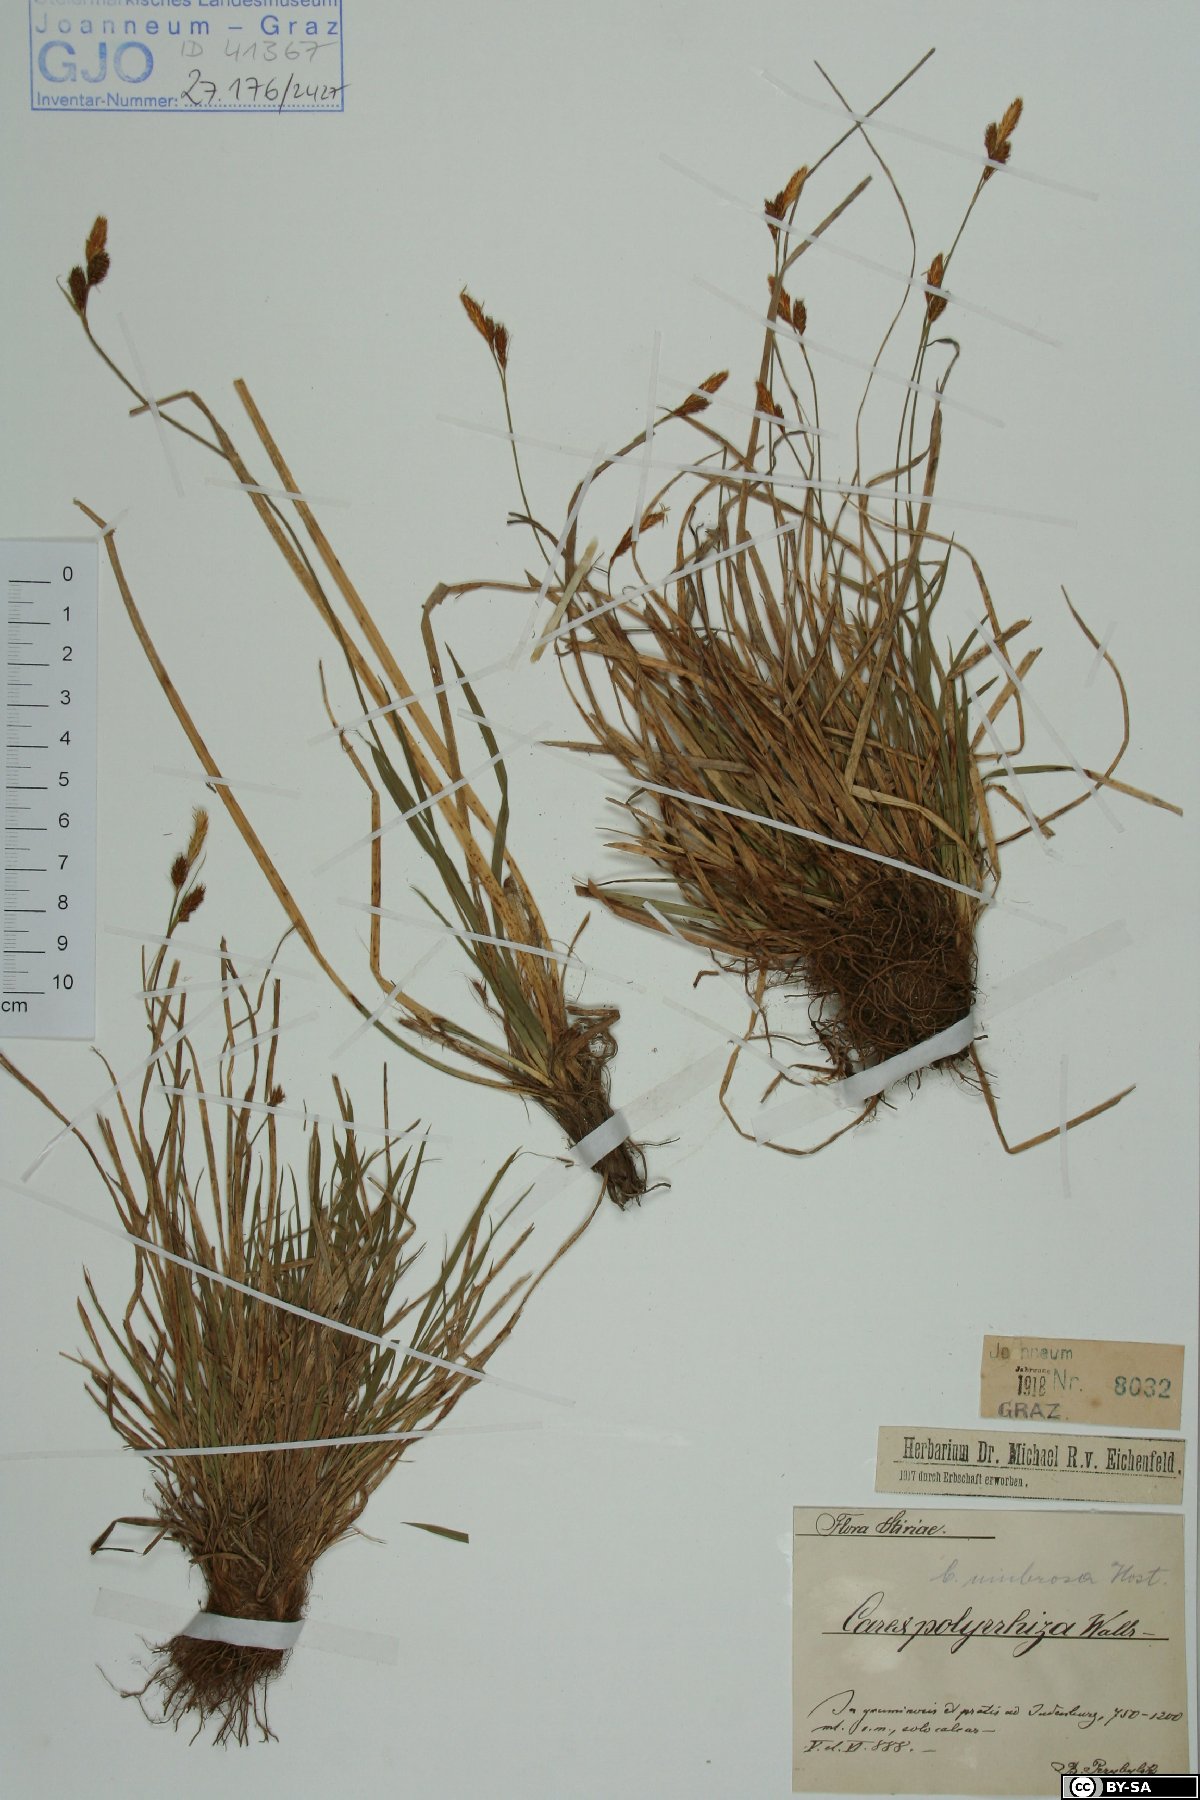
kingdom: Plantae
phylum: Tracheophyta
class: Liliopsida
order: Poales
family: Cyperaceae
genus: Carex
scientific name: Carex umbrosa
